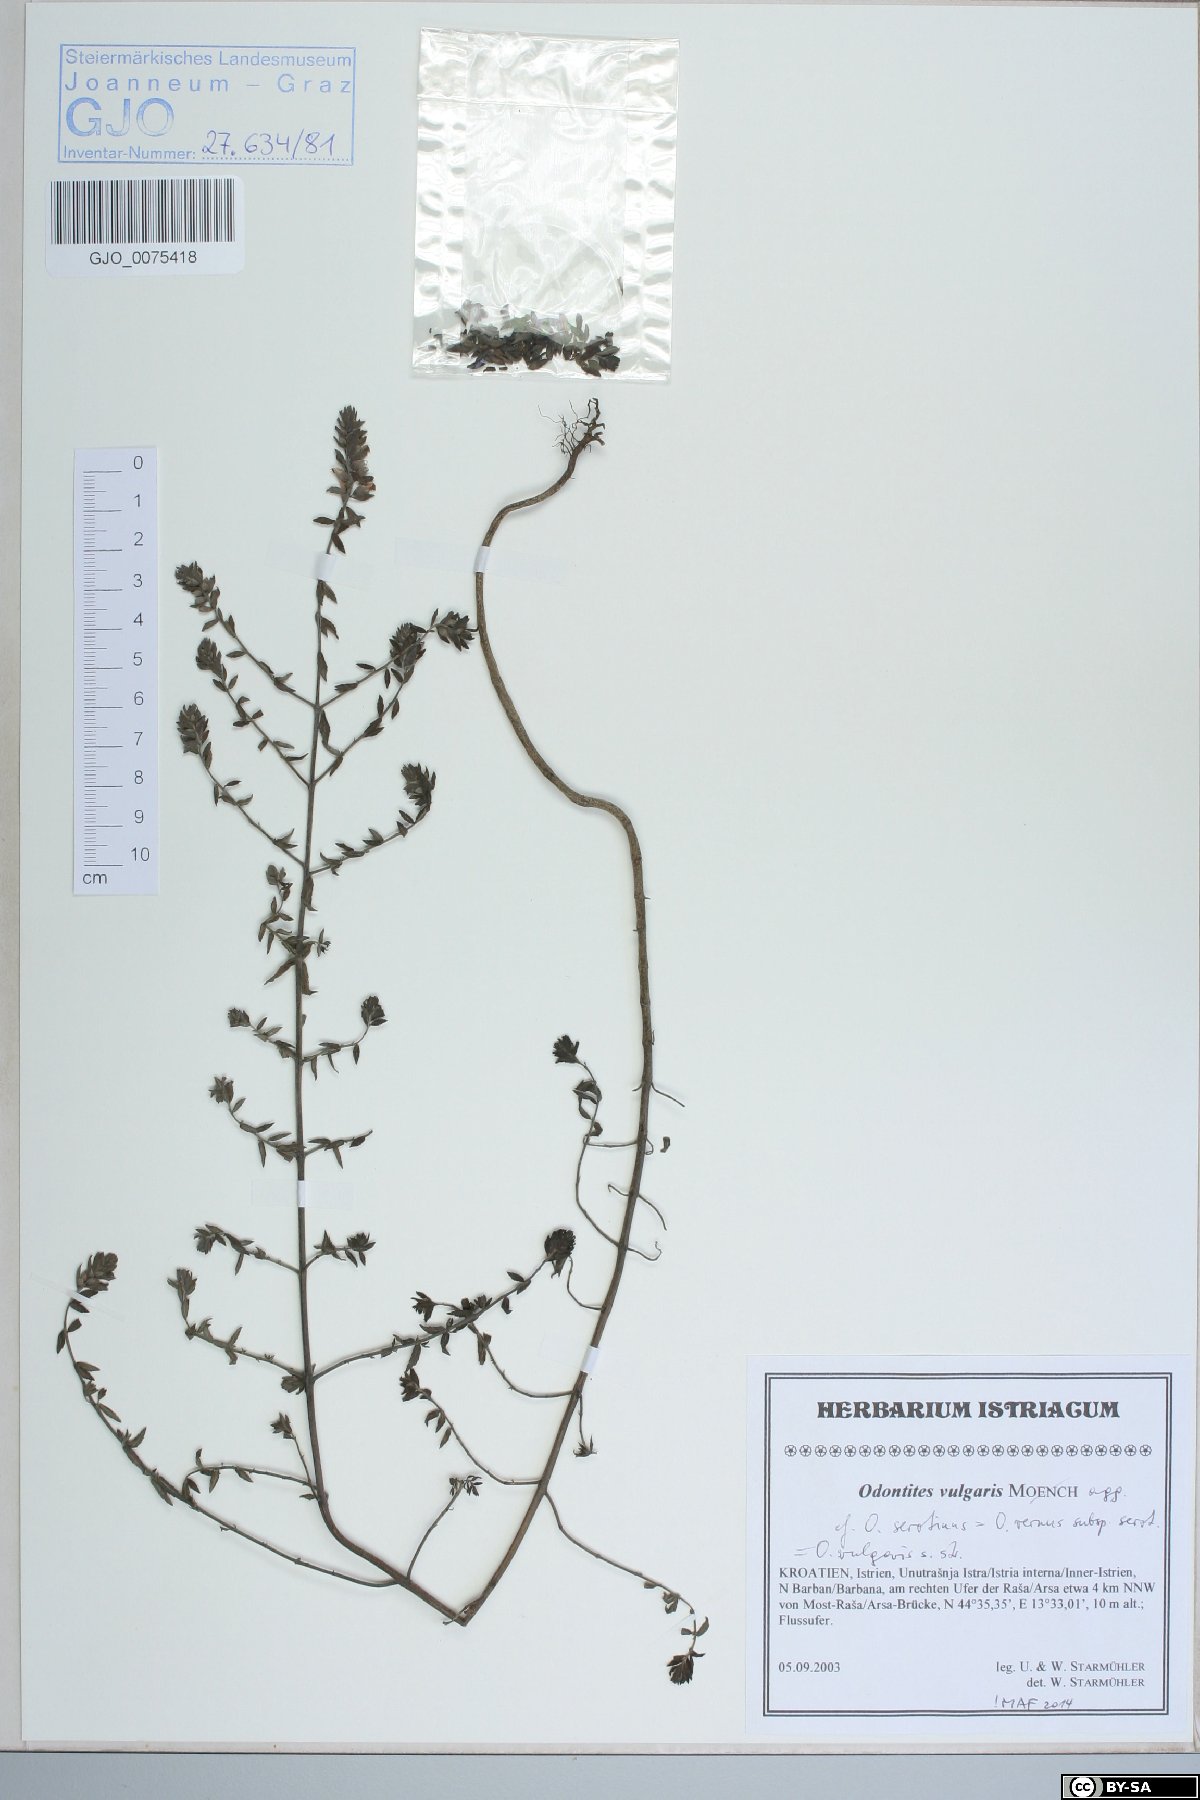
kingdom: Plantae
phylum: Tracheophyta
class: Magnoliopsida
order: Lamiales
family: Orobanchaceae
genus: Odontites
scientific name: Odontites vulgaris
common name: Broomrape
